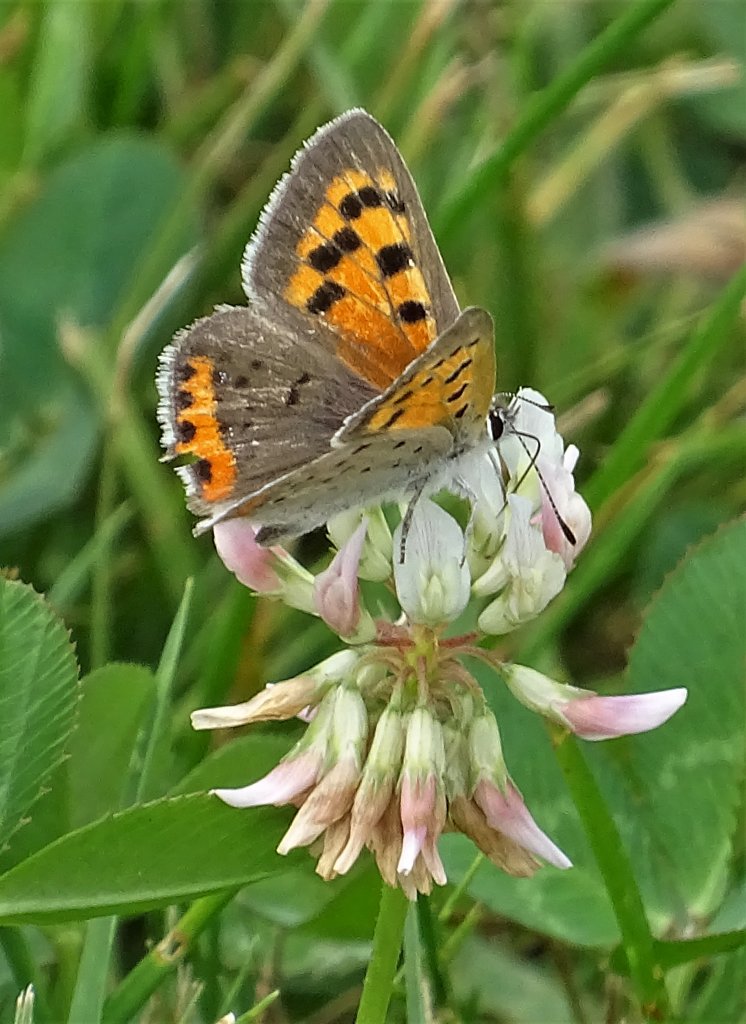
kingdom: Animalia
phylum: Arthropoda
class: Insecta
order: Lepidoptera
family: Lycaenidae
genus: Lycaena
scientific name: Lycaena phlaeas
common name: American Copper
